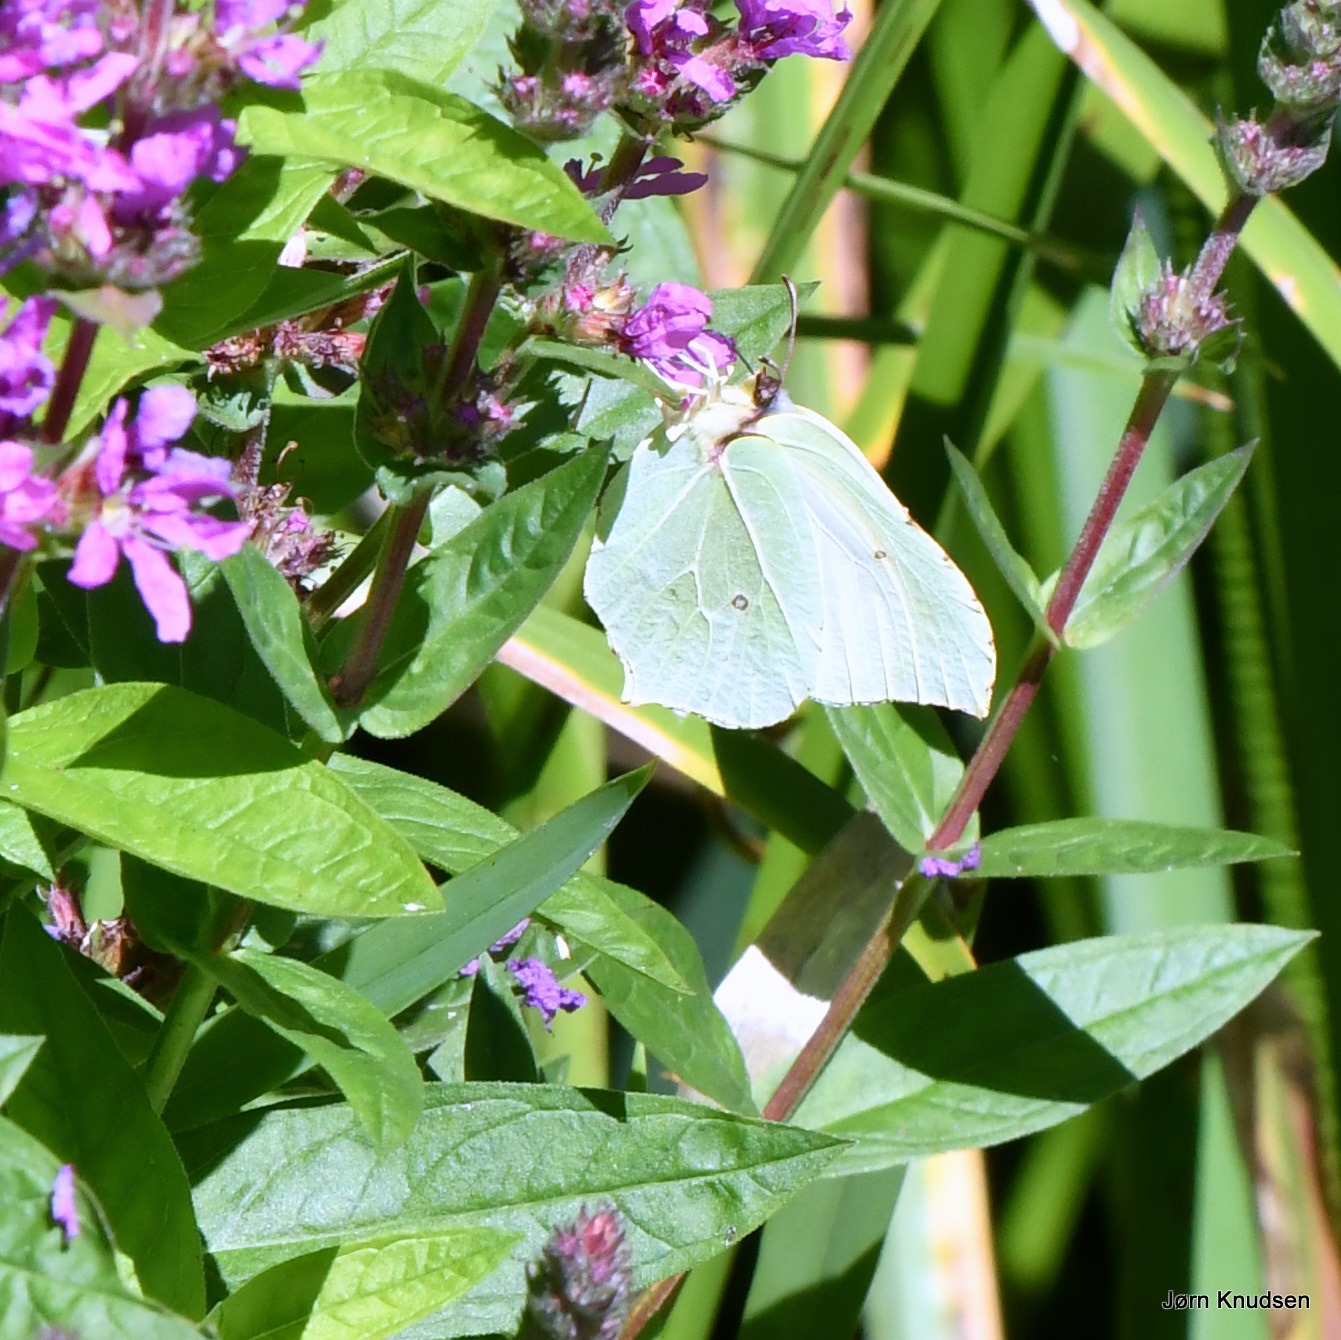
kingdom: Animalia
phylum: Arthropoda
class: Insecta
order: Lepidoptera
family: Pieridae
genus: Gonepteryx
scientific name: Gonepteryx rhamni
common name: Citronsommerfugl
